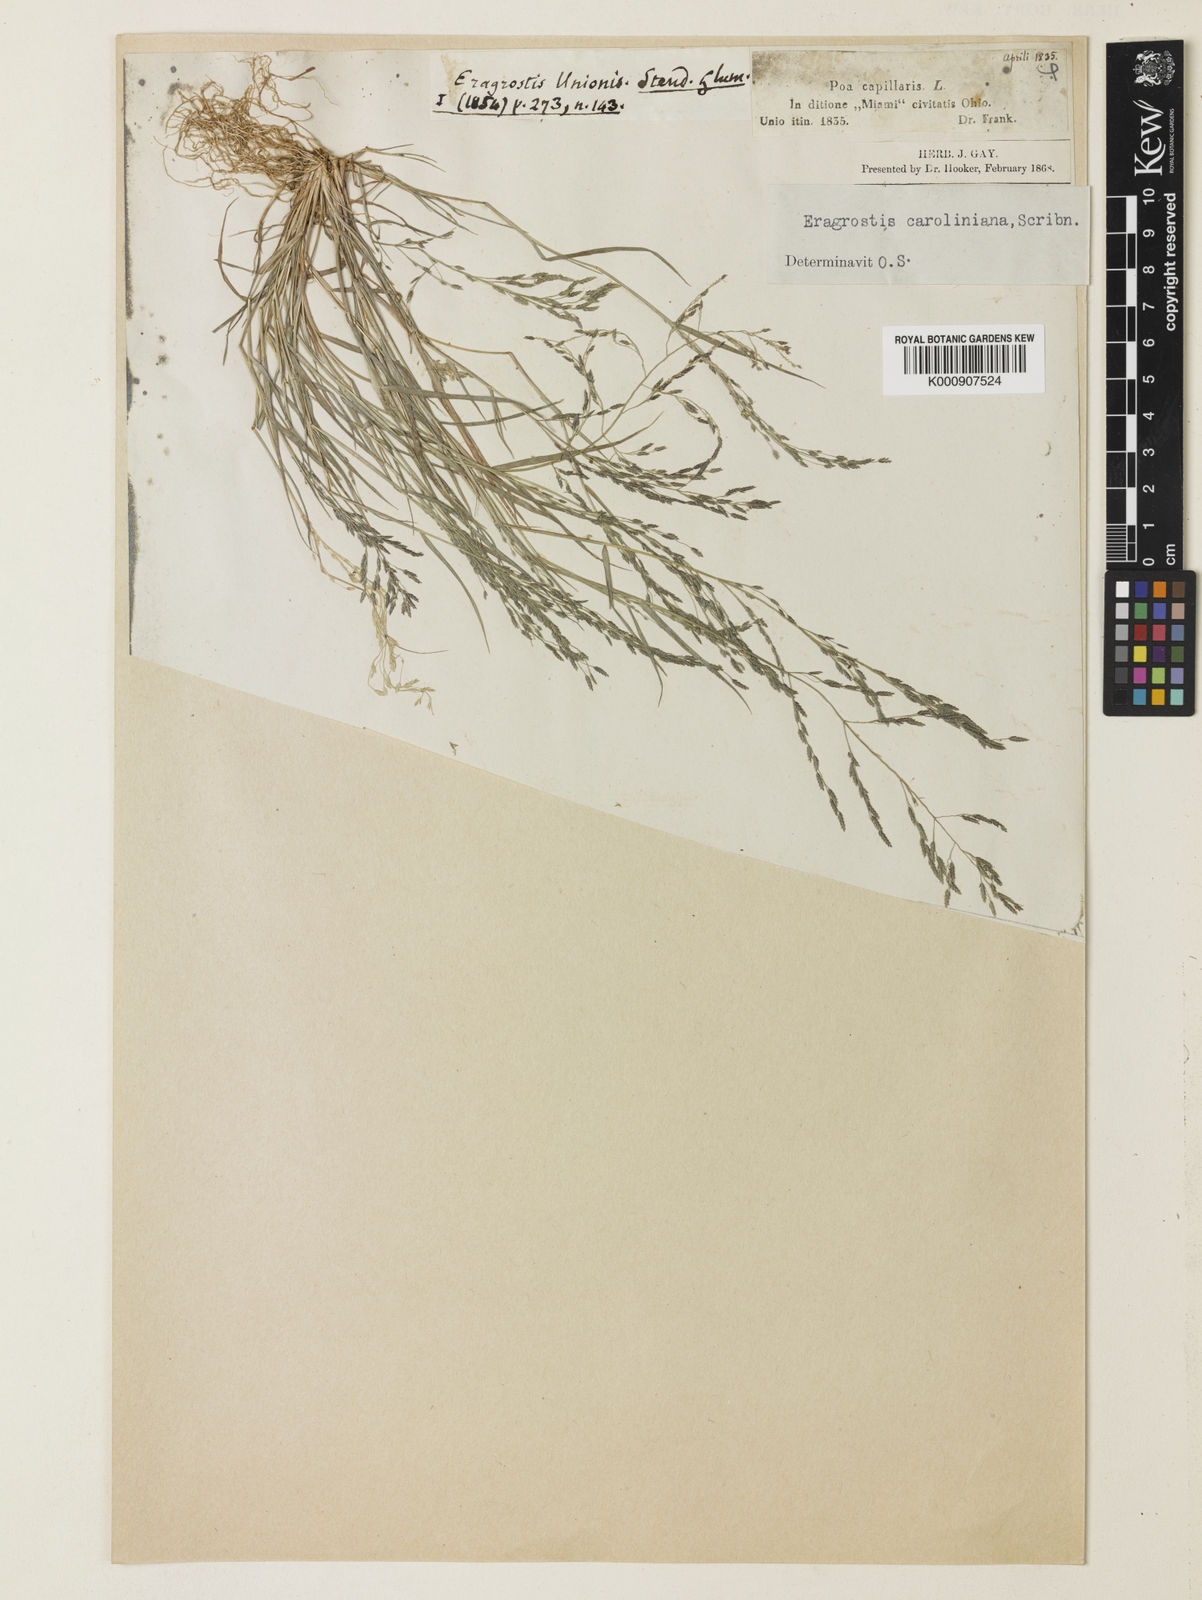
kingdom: Plantae
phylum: Tracheophyta
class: Liliopsida
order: Poales
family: Poaceae
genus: Eragrostis
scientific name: Eragrostis pectinacea
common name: Tufted lovegrass
